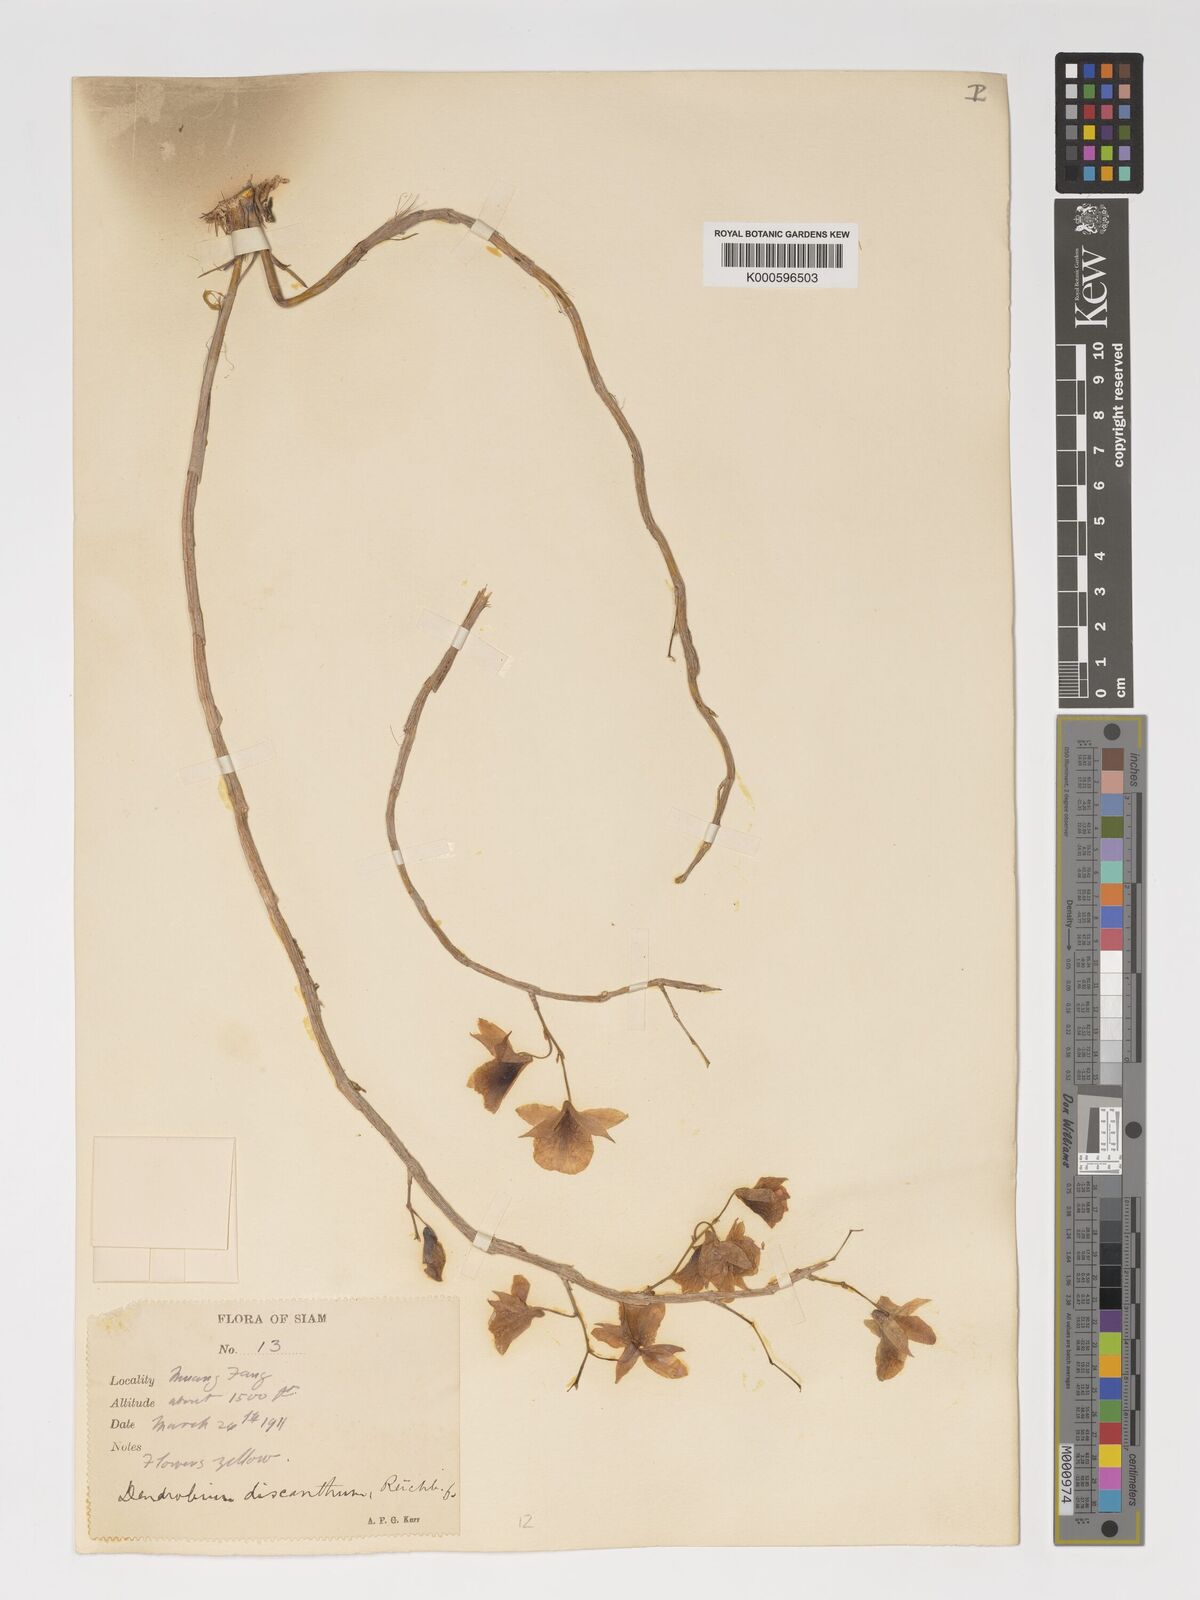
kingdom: Plantae
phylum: Tracheophyta
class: Liliopsida
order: Asparagales
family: Orchidaceae
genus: Dendrobium
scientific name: Dendrobium dixanthum
